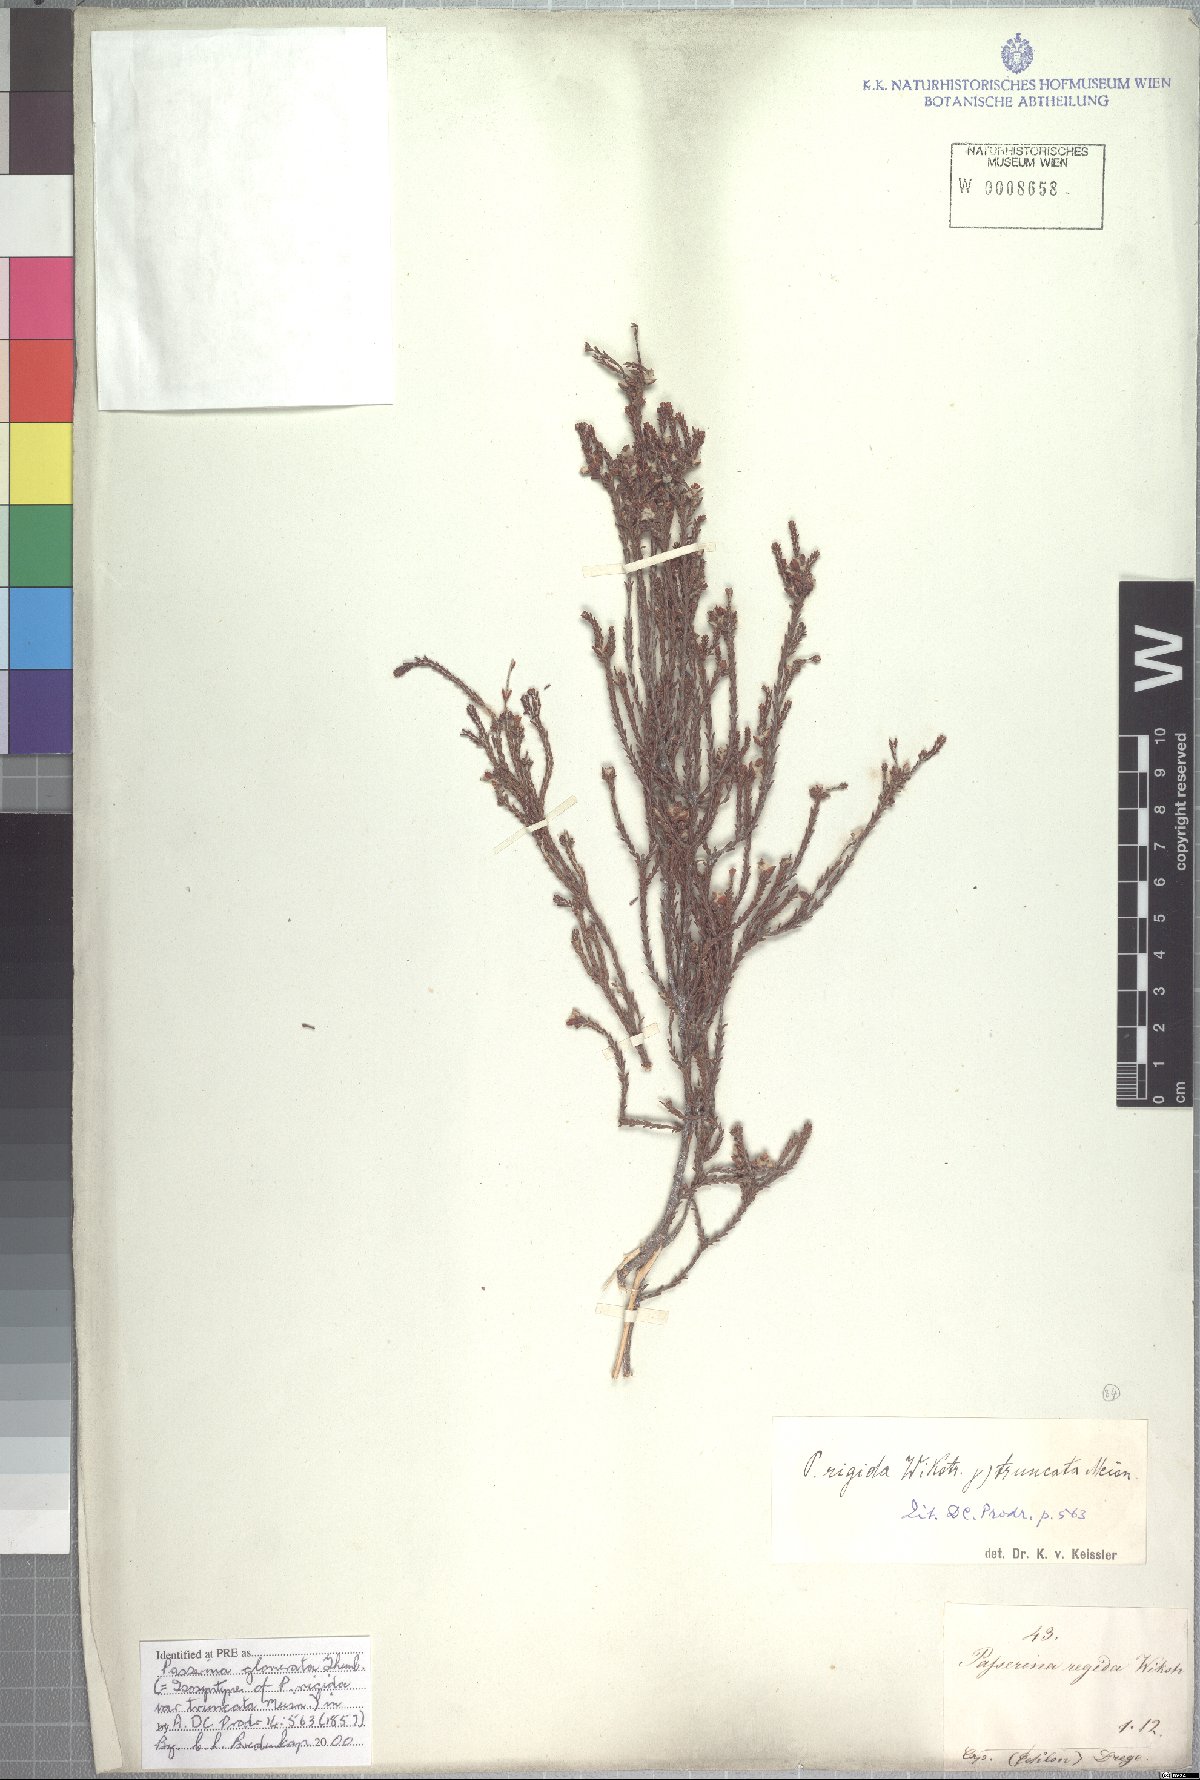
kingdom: Plantae
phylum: Tracheophyta
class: Magnoliopsida
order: Malvales
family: Thymelaeaceae
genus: Passerina
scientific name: Passerina truncata
